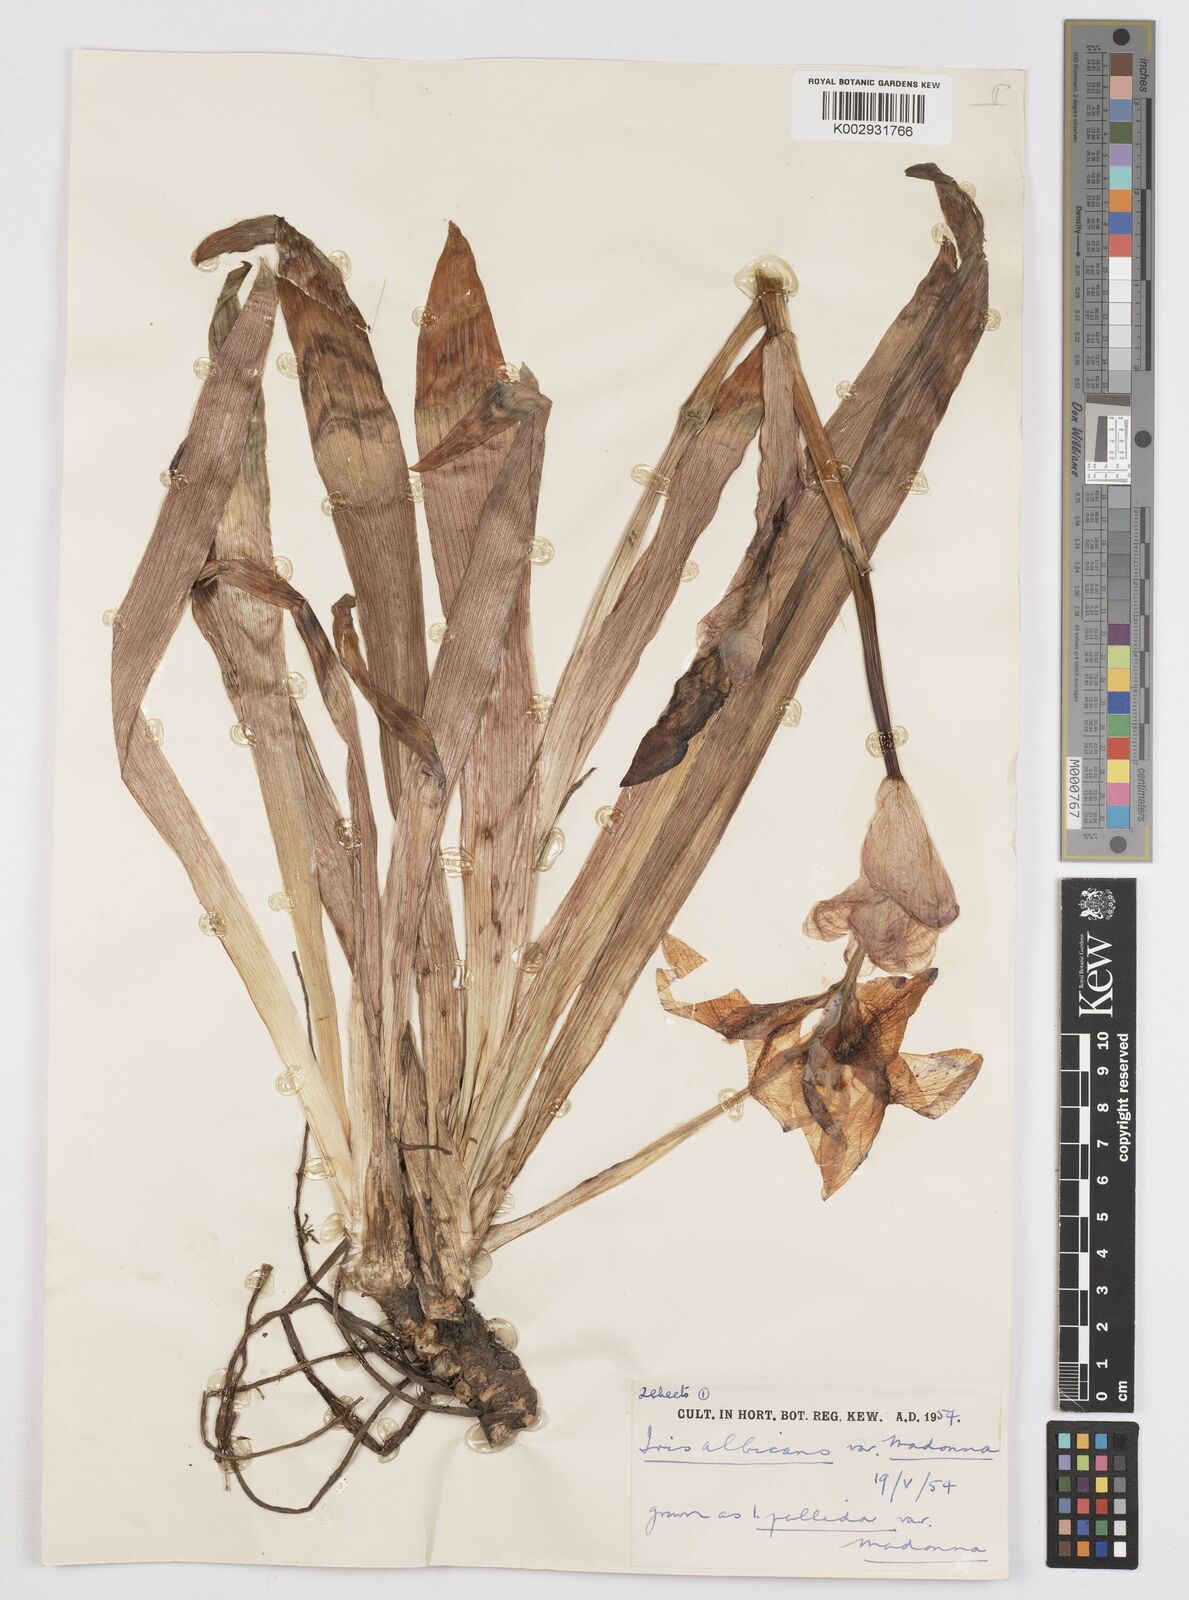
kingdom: Plantae
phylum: Tracheophyta
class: Liliopsida
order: Asparagales
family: Iridaceae
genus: Iris
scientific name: Iris florentina
